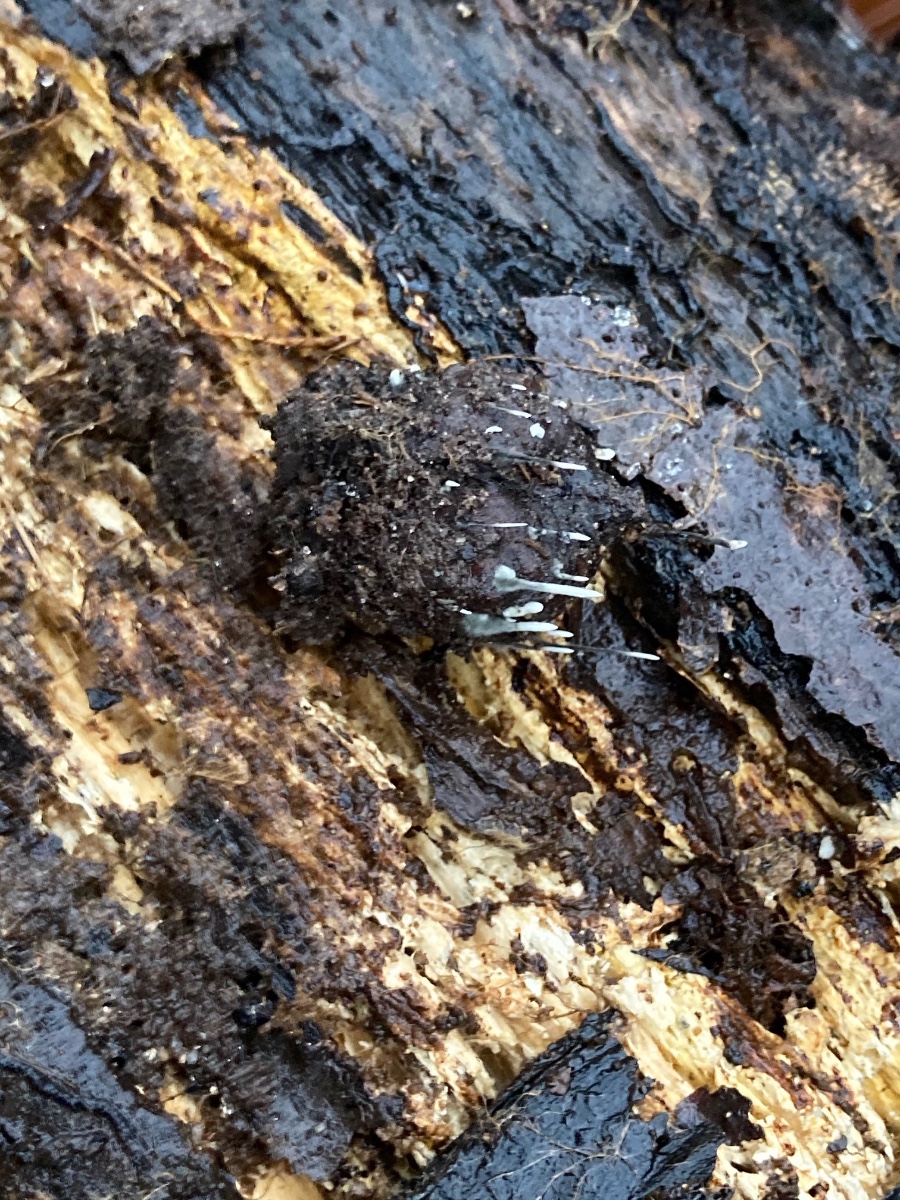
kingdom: Fungi
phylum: Ascomycota
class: Sordariomycetes
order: Xylariales
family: Xylariaceae
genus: Xylaria
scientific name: Xylaria carpophila
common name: bogskål-stødsvamp
